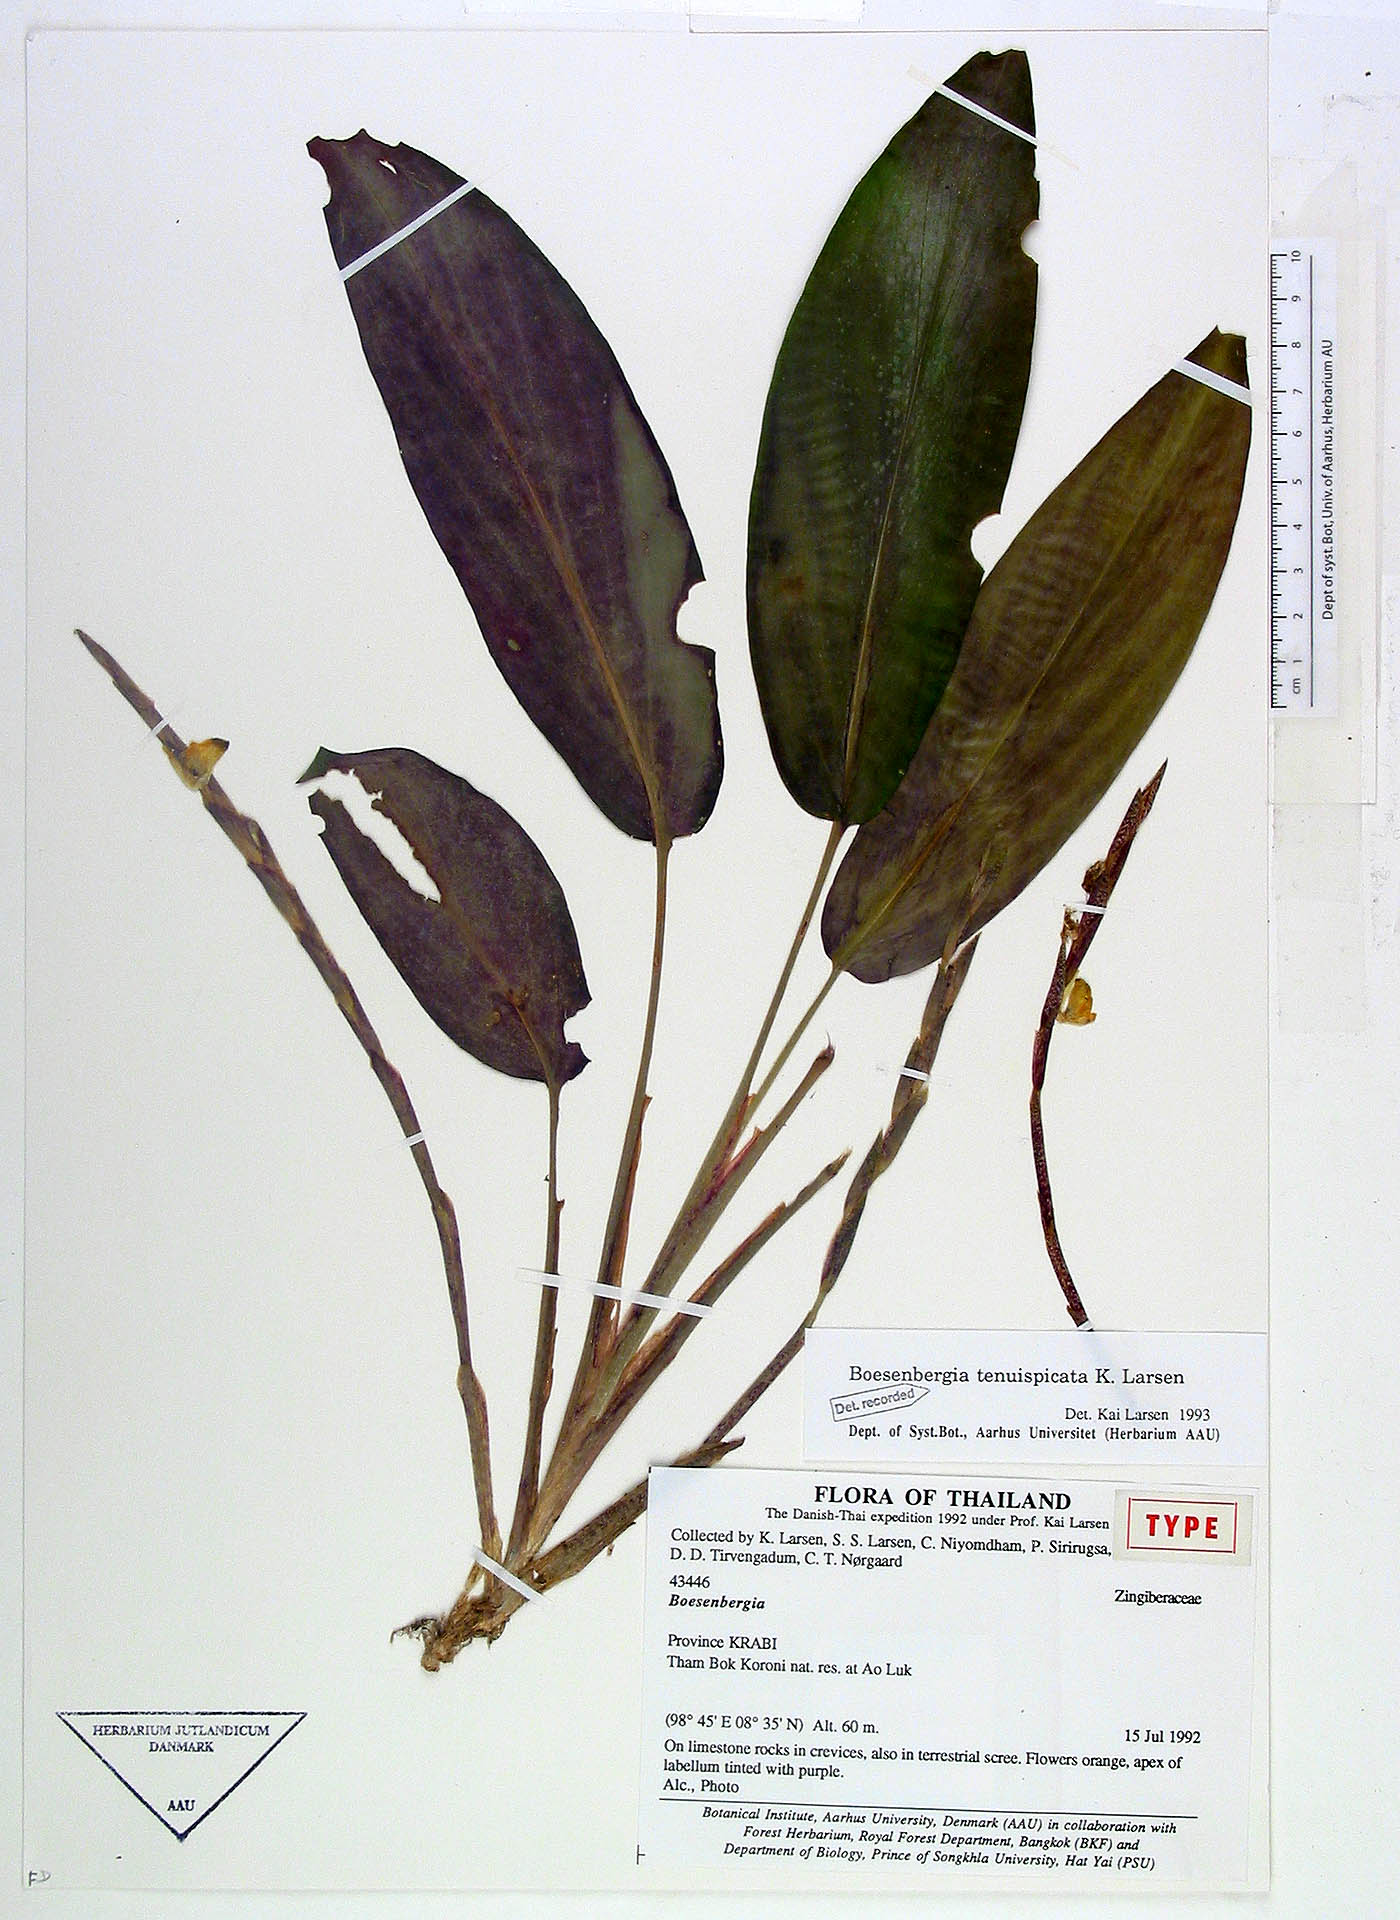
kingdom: Plantae
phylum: Tracheophyta
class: Liliopsida
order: Zingiberales
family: Zingiberaceae
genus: Boesenbergia
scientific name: Boesenbergia tenuispicata
